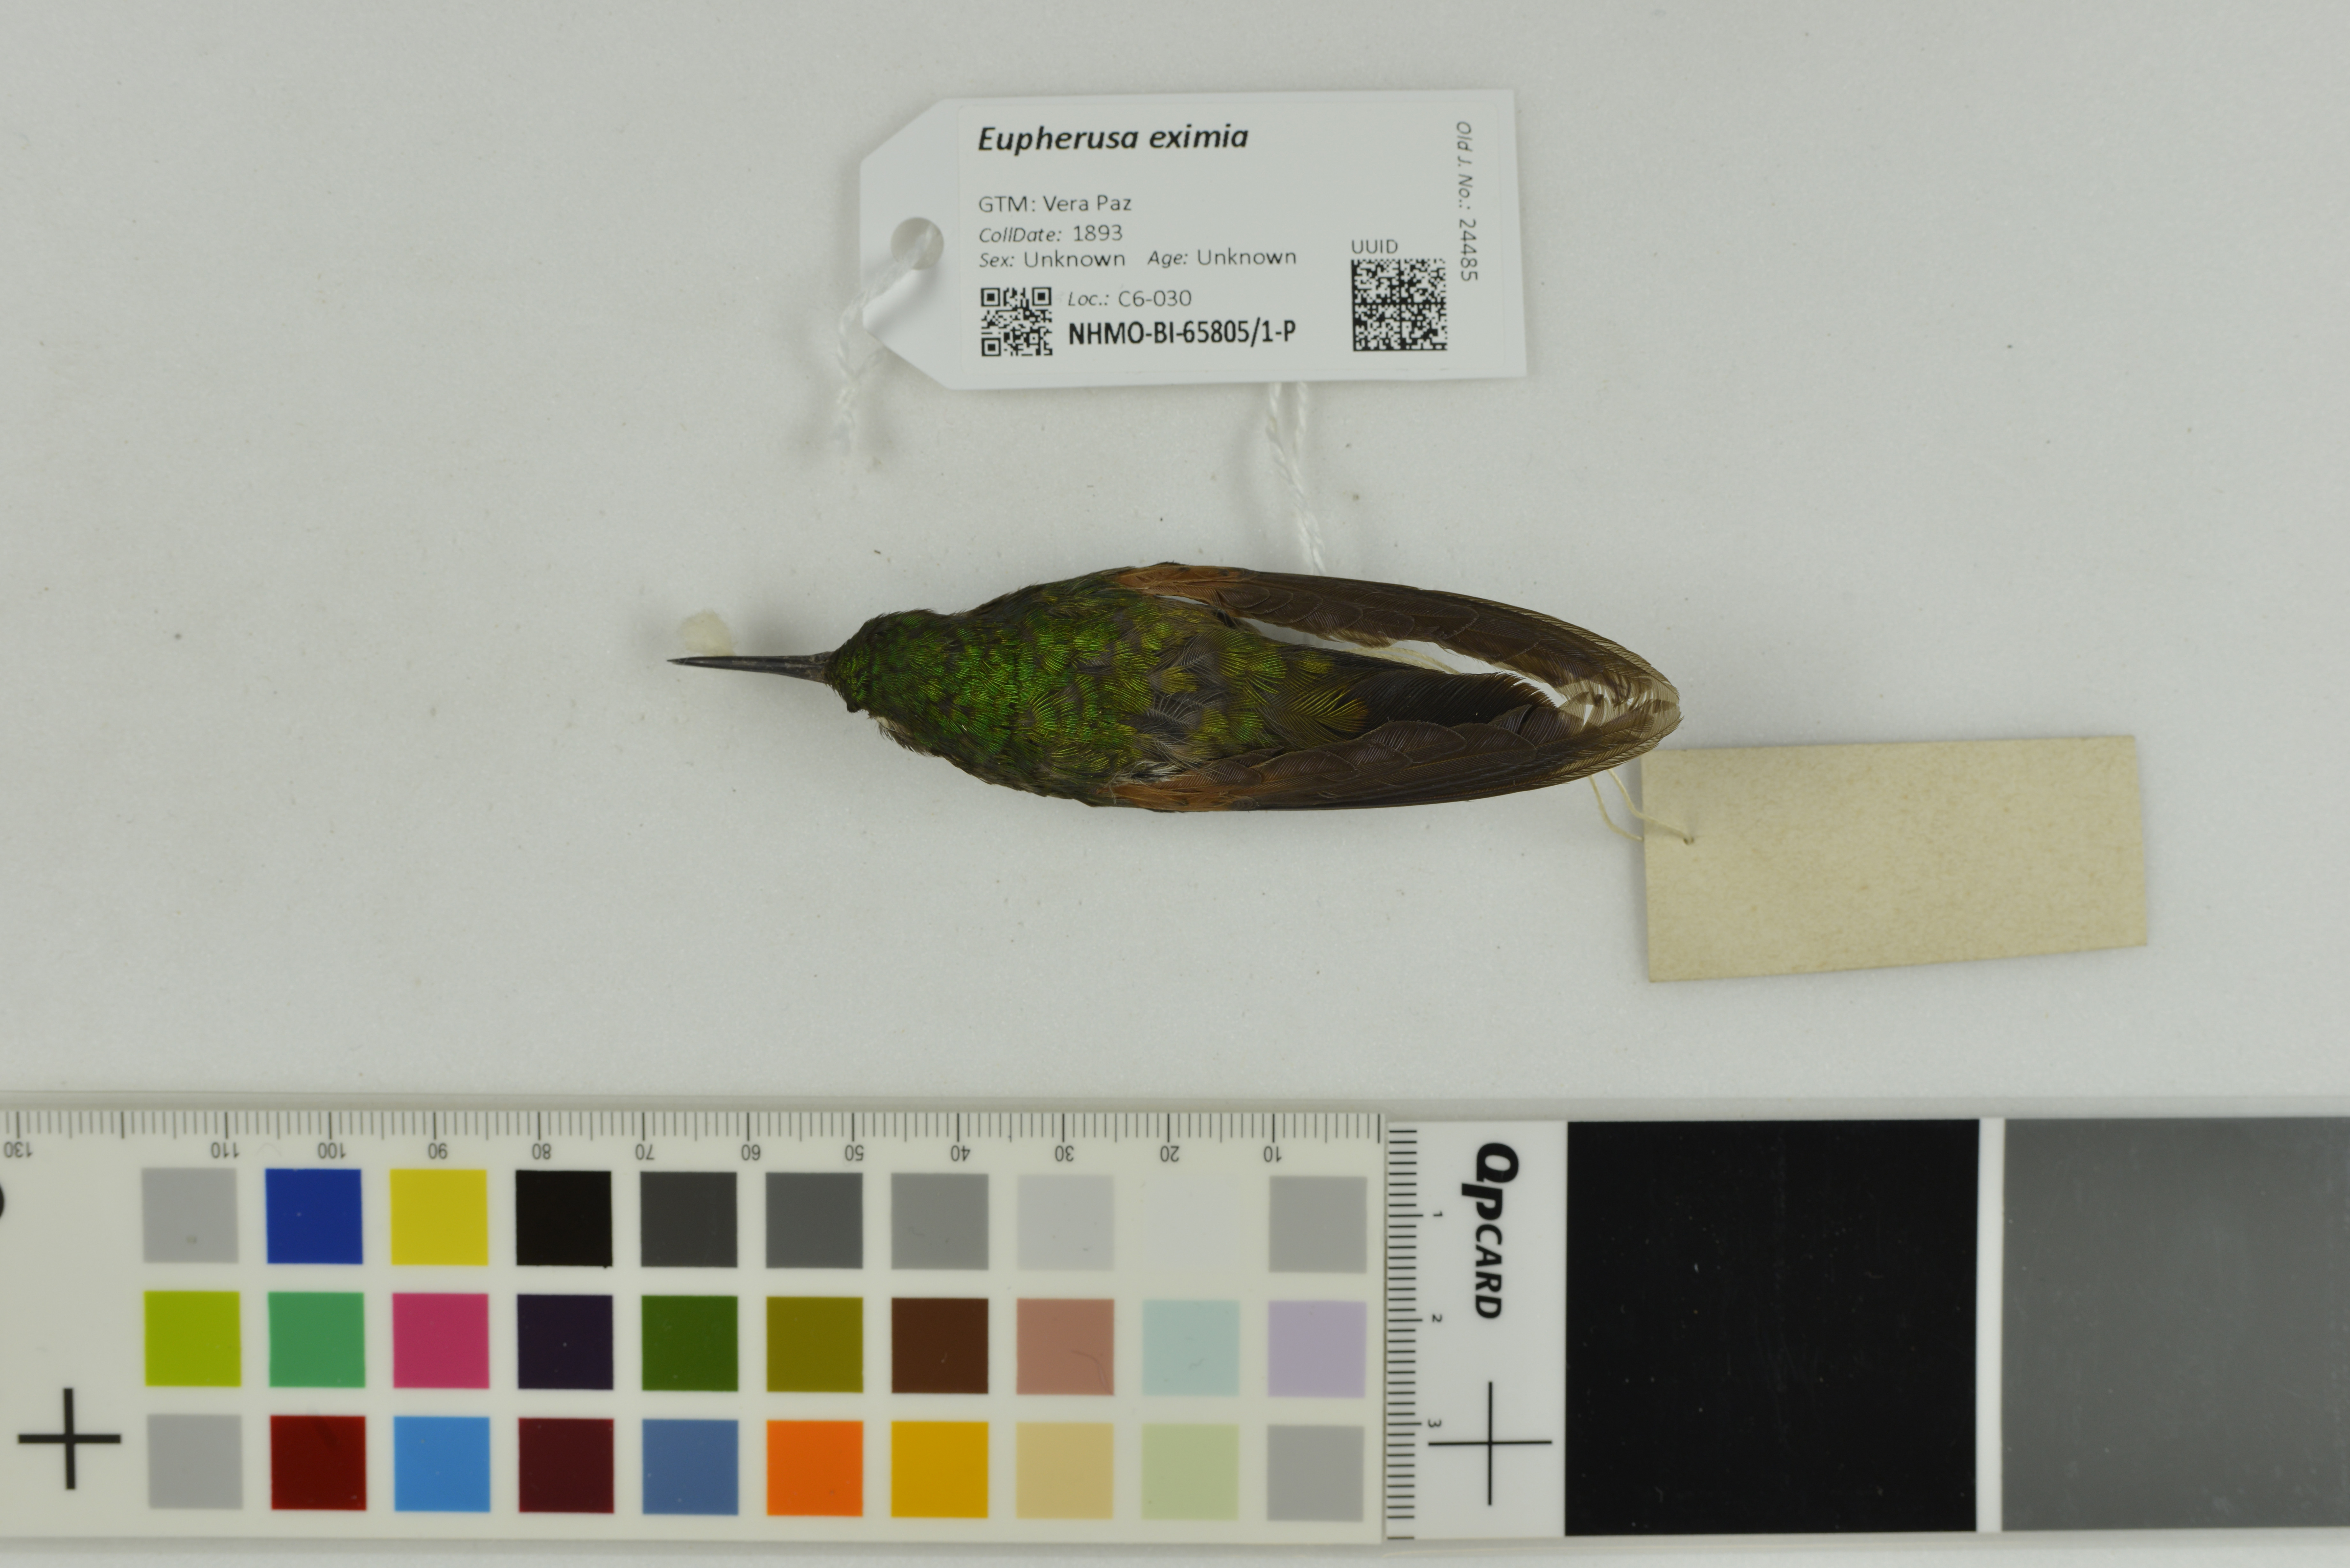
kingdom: Animalia
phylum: Chordata
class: Aves
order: Apodiformes
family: Trochilidae
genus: Eupherusa
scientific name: Eupherusa eximia
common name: Stripe-tailed hummingbird
